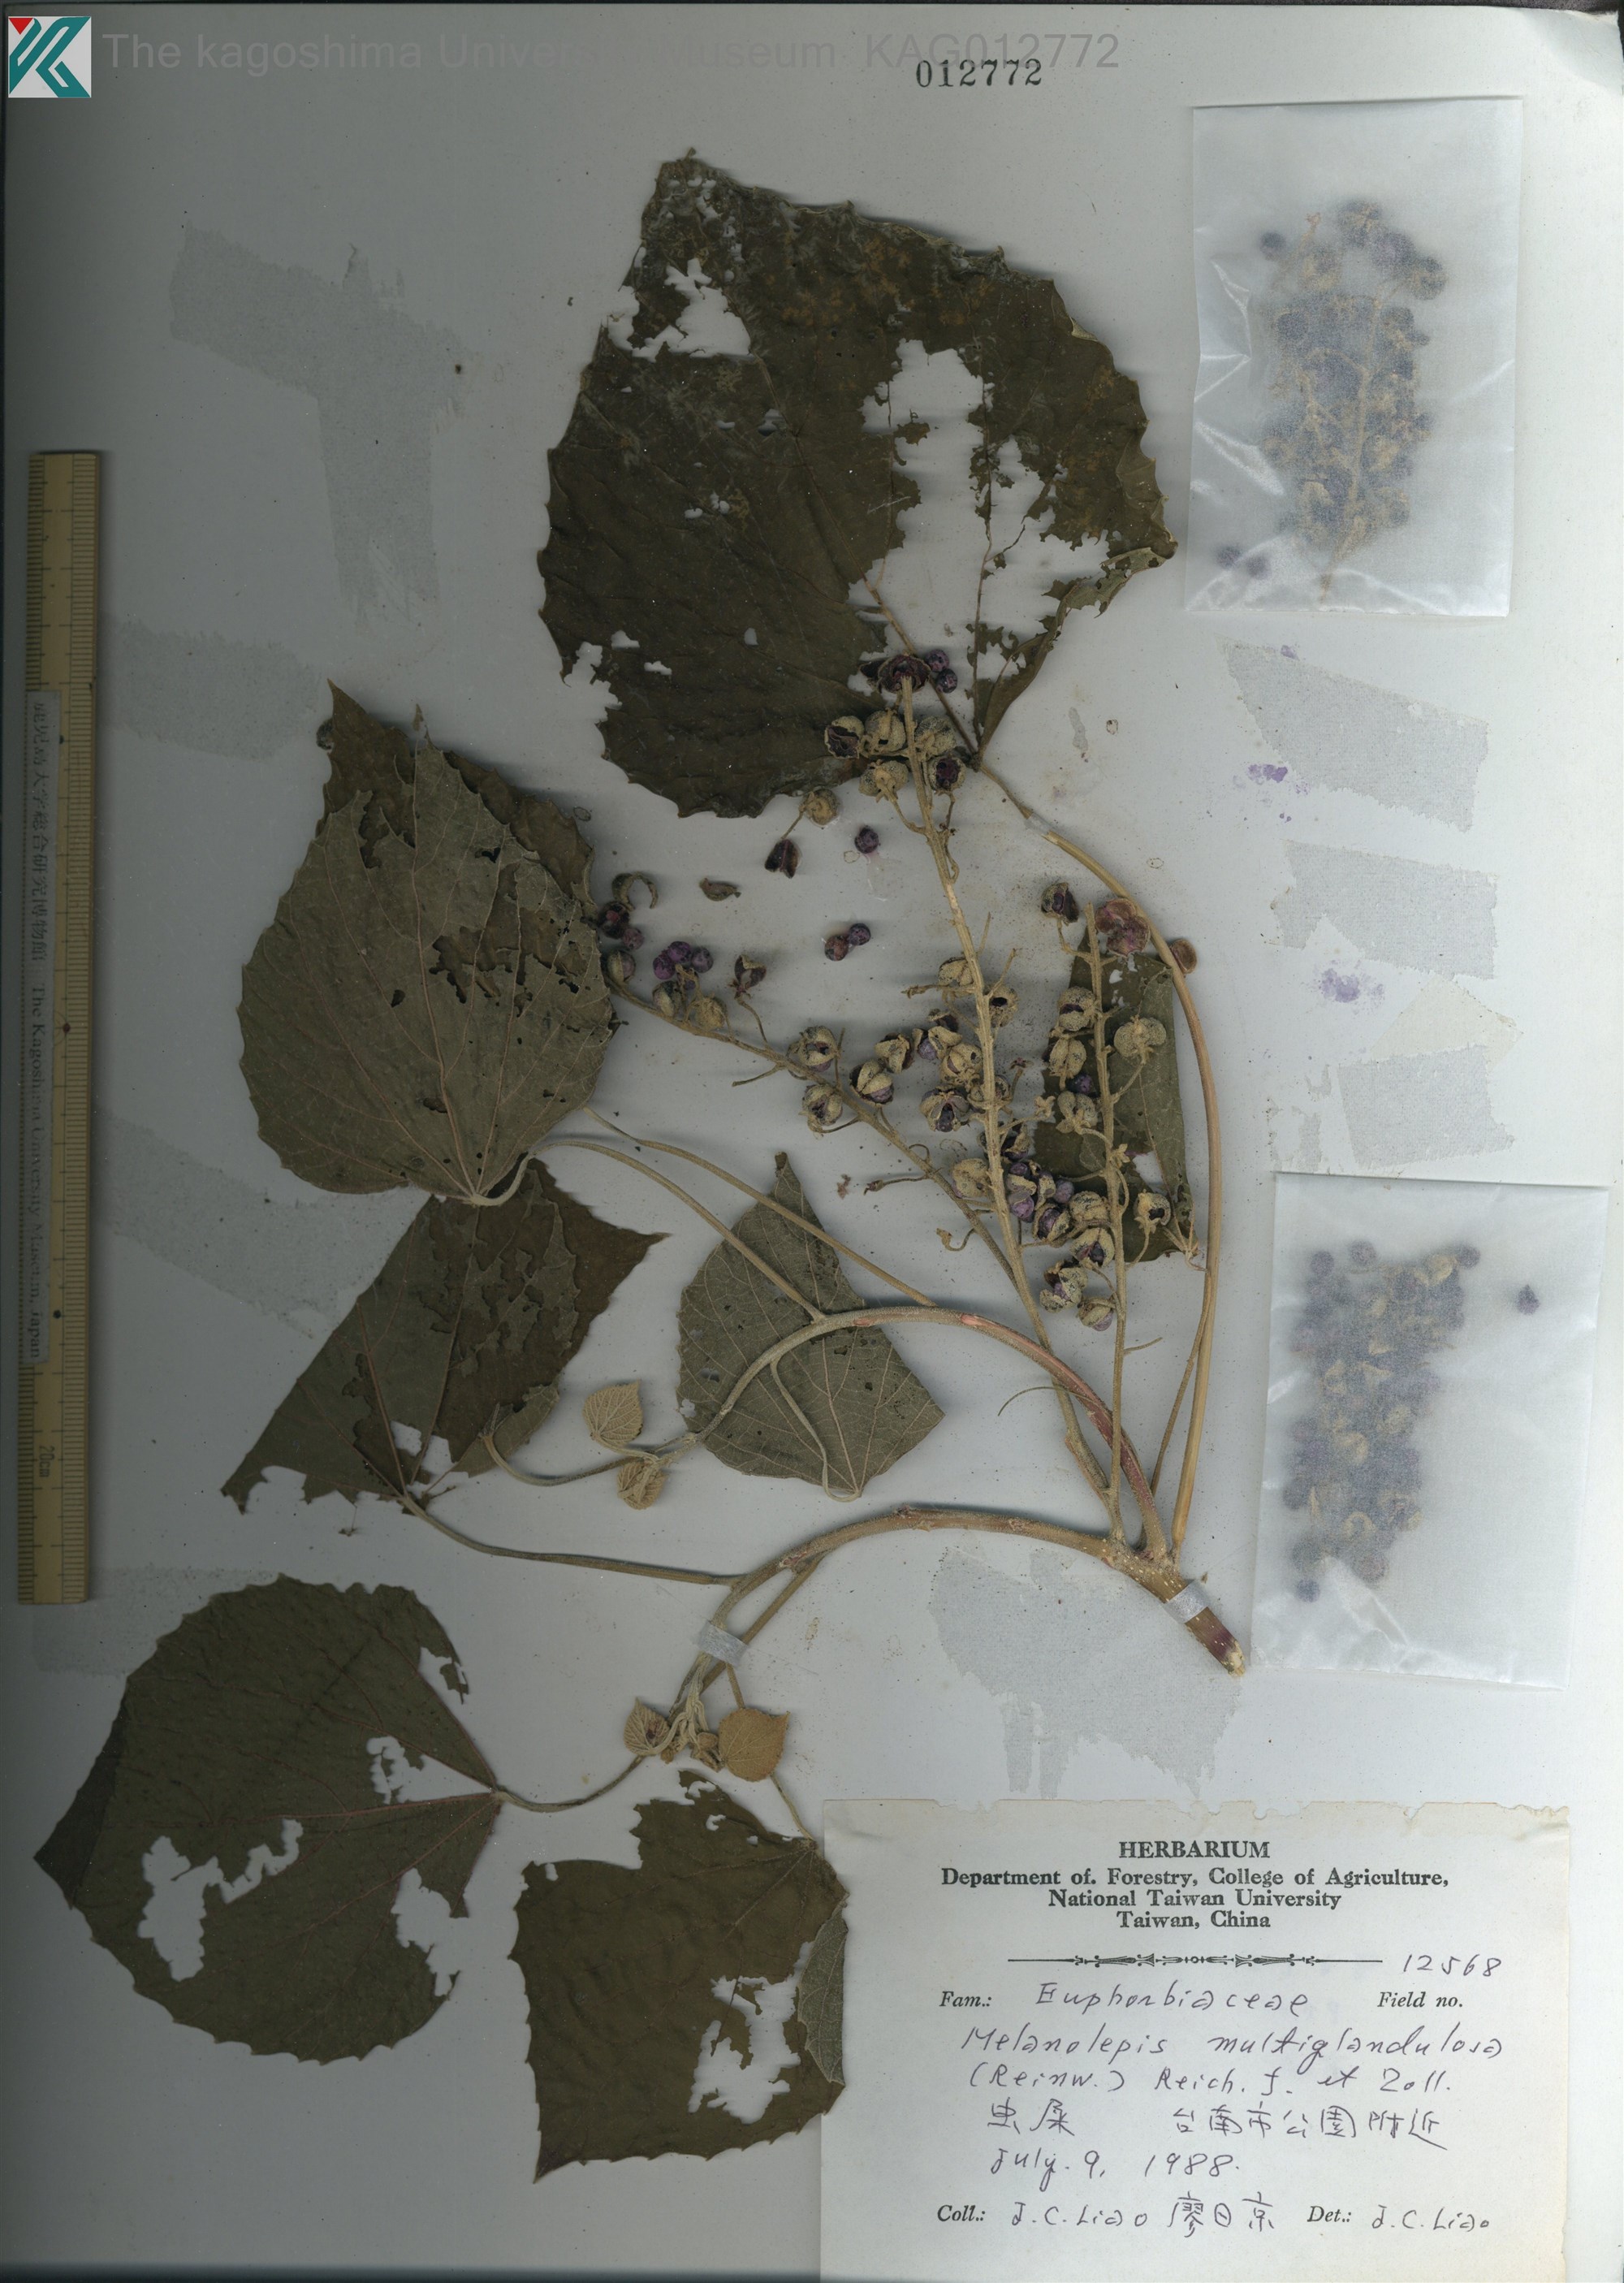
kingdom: Plantae
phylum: Tracheophyta
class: Magnoliopsida
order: Malpighiales
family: Euphorbiaceae
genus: Melanolepis
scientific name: Melanolepis multiglandulosa
